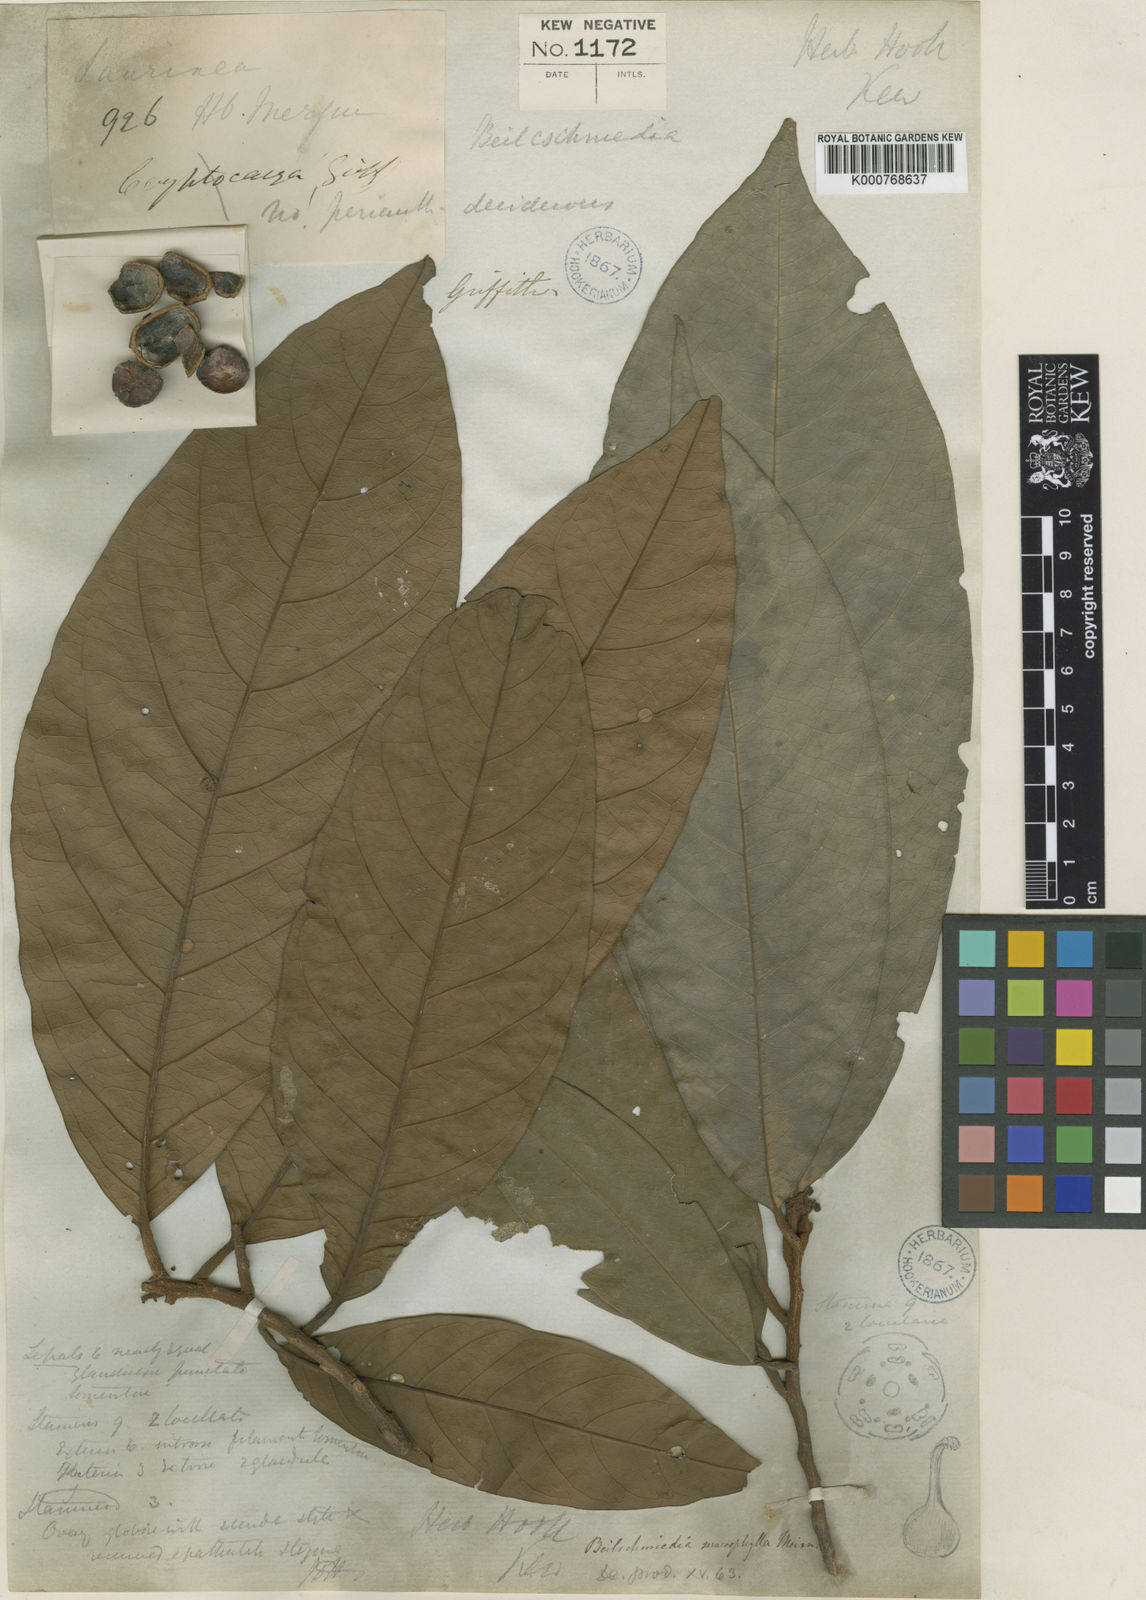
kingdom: Plantae
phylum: Tracheophyta
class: Magnoliopsida
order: Laurales
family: Lauraceae
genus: Beilschmiedia
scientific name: Beilschmiedia macrophylla
